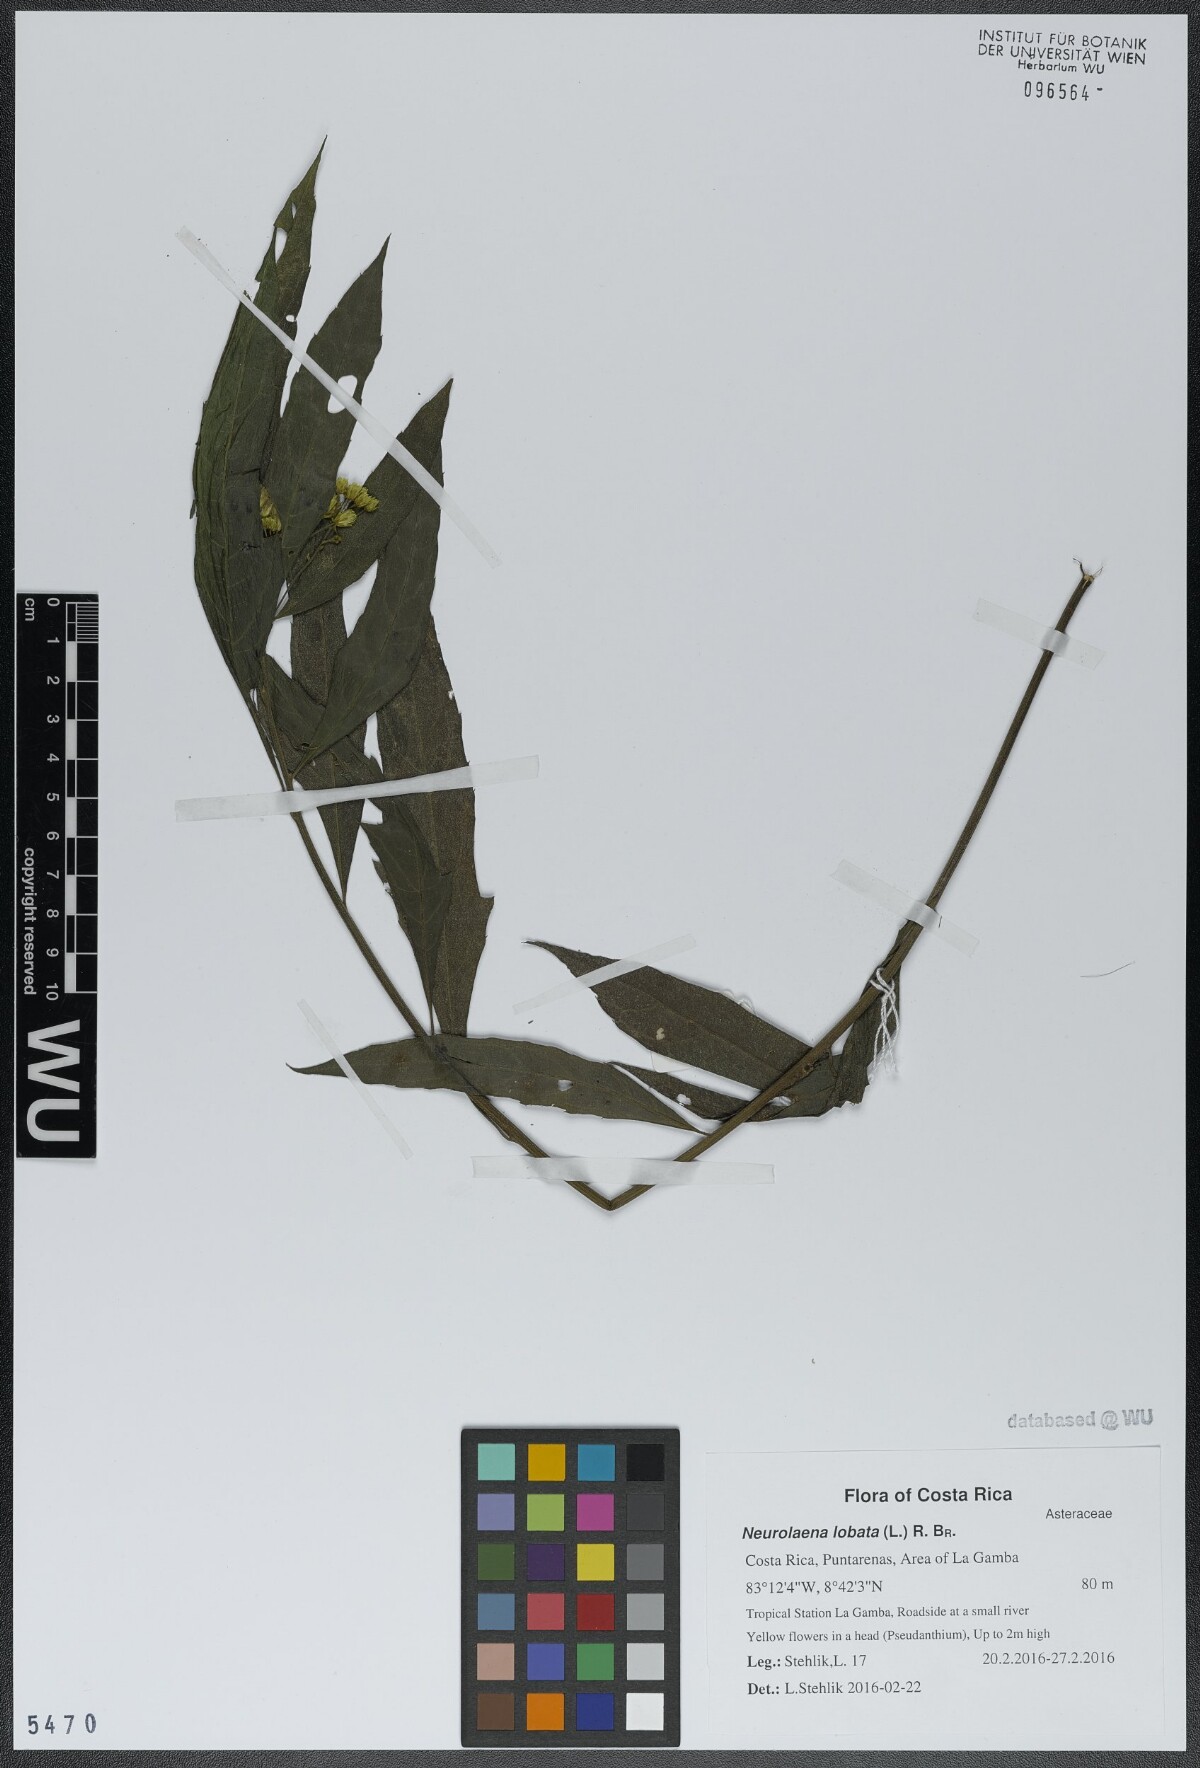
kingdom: Plantae
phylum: Tracheophyta
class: Magnoliopsida
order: Asterales
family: Asteraceae
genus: Neurolaena
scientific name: Neurolaena lobata
